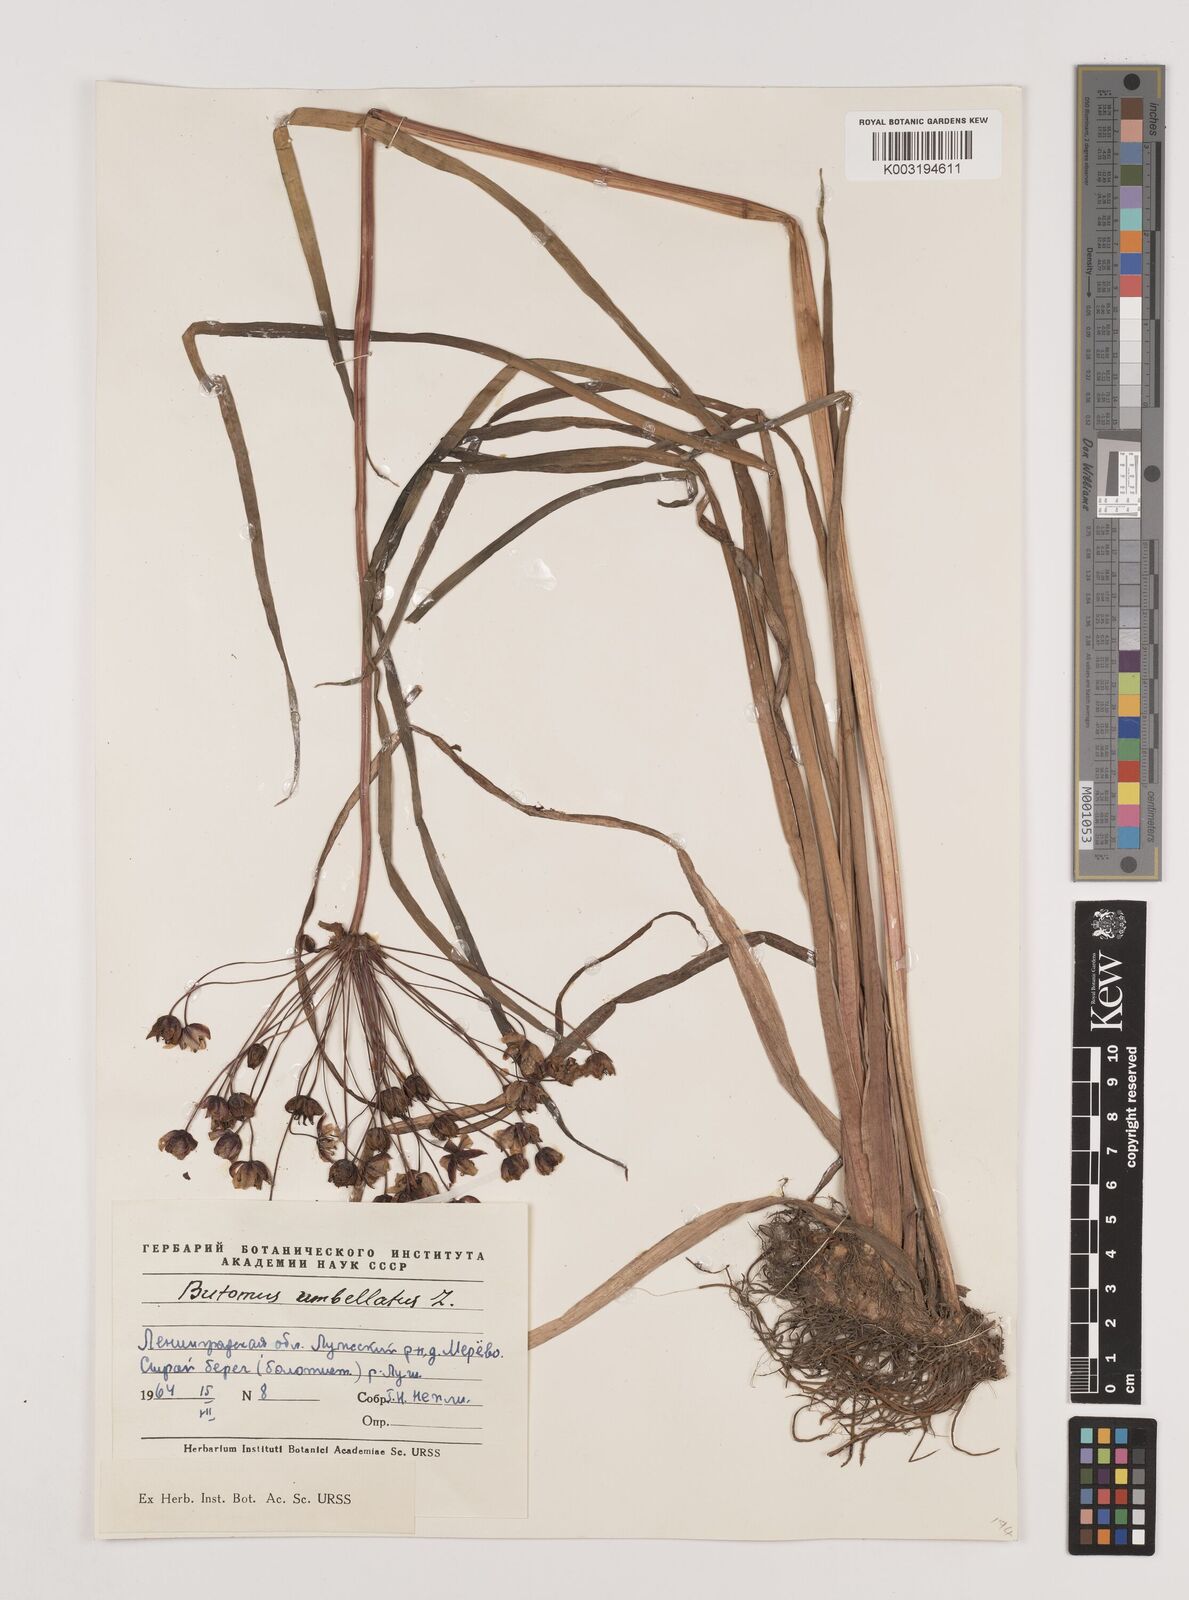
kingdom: Plantae
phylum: Tracheophyta
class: Liliopsida
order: Alismatales
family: Butomaceae
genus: Butomus
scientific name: Butomus umbellatus
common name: Flowering-rush
